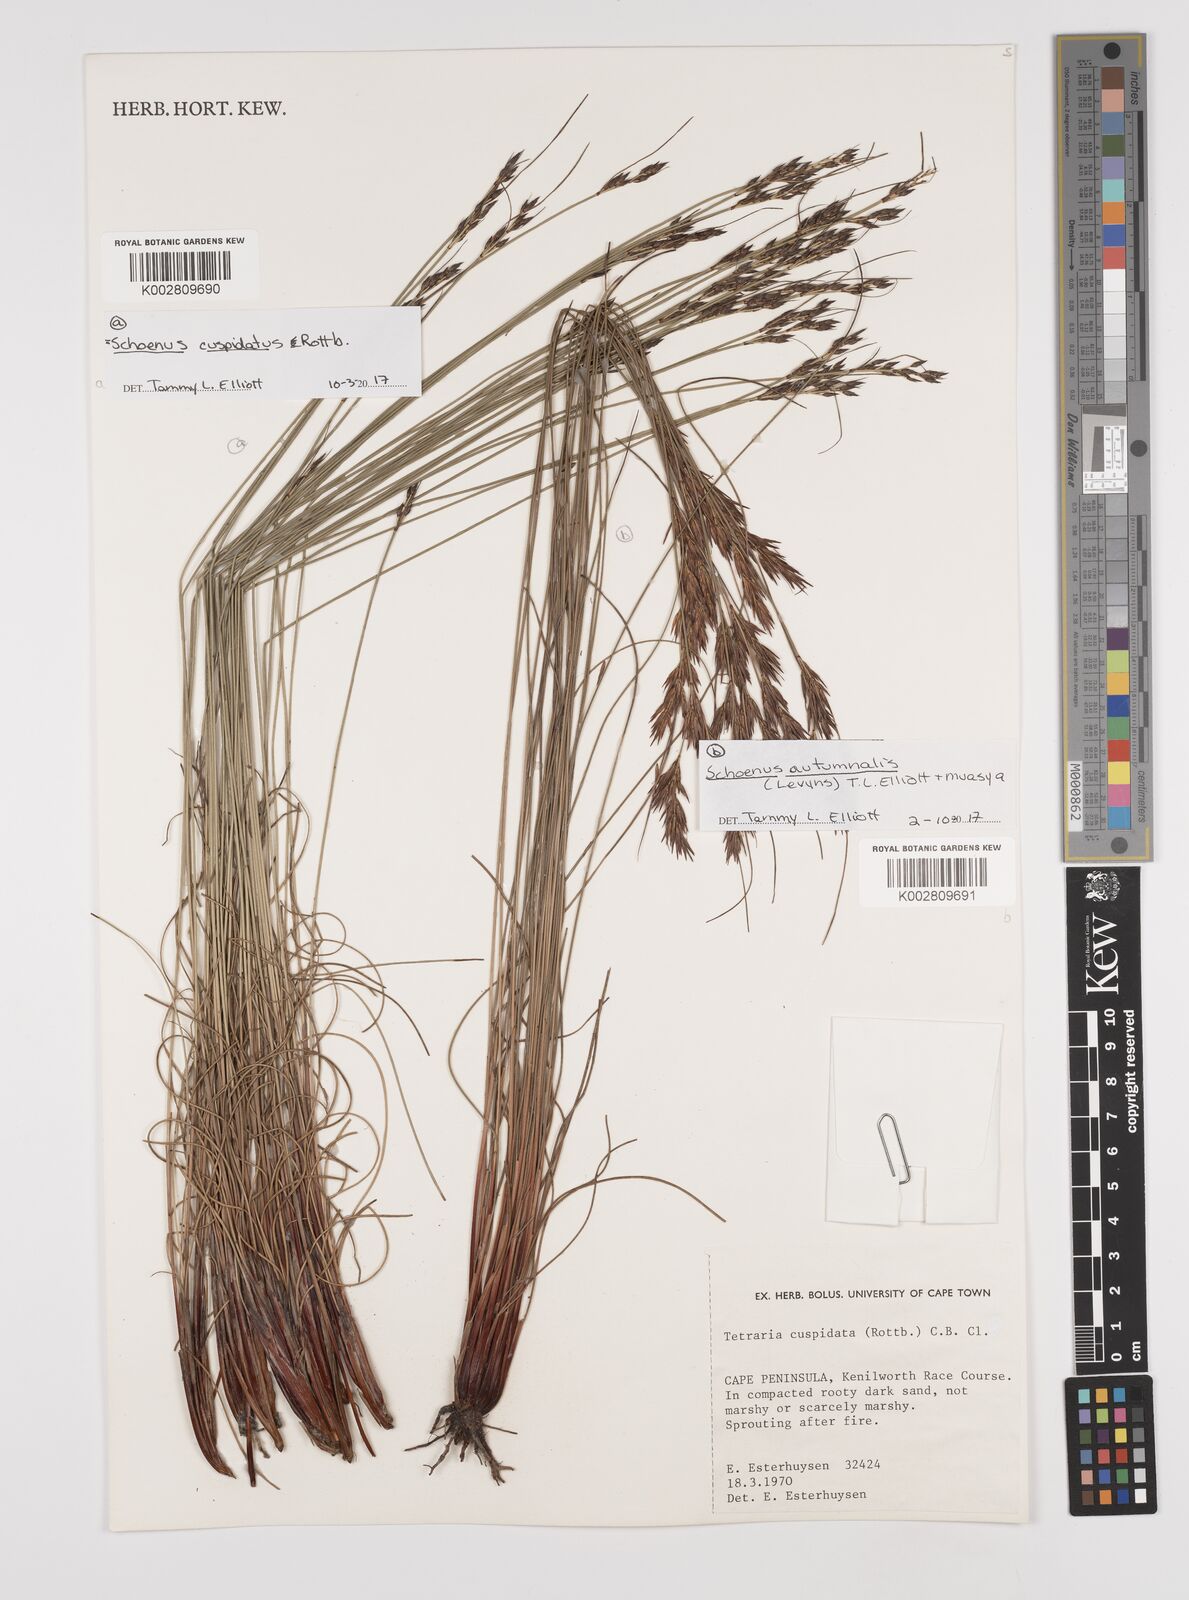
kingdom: Plantae
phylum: Tracheophyta
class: Liliopsida
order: Poales
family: Cyperaceae
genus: Schoenus
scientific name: Schoenus ligulatus
